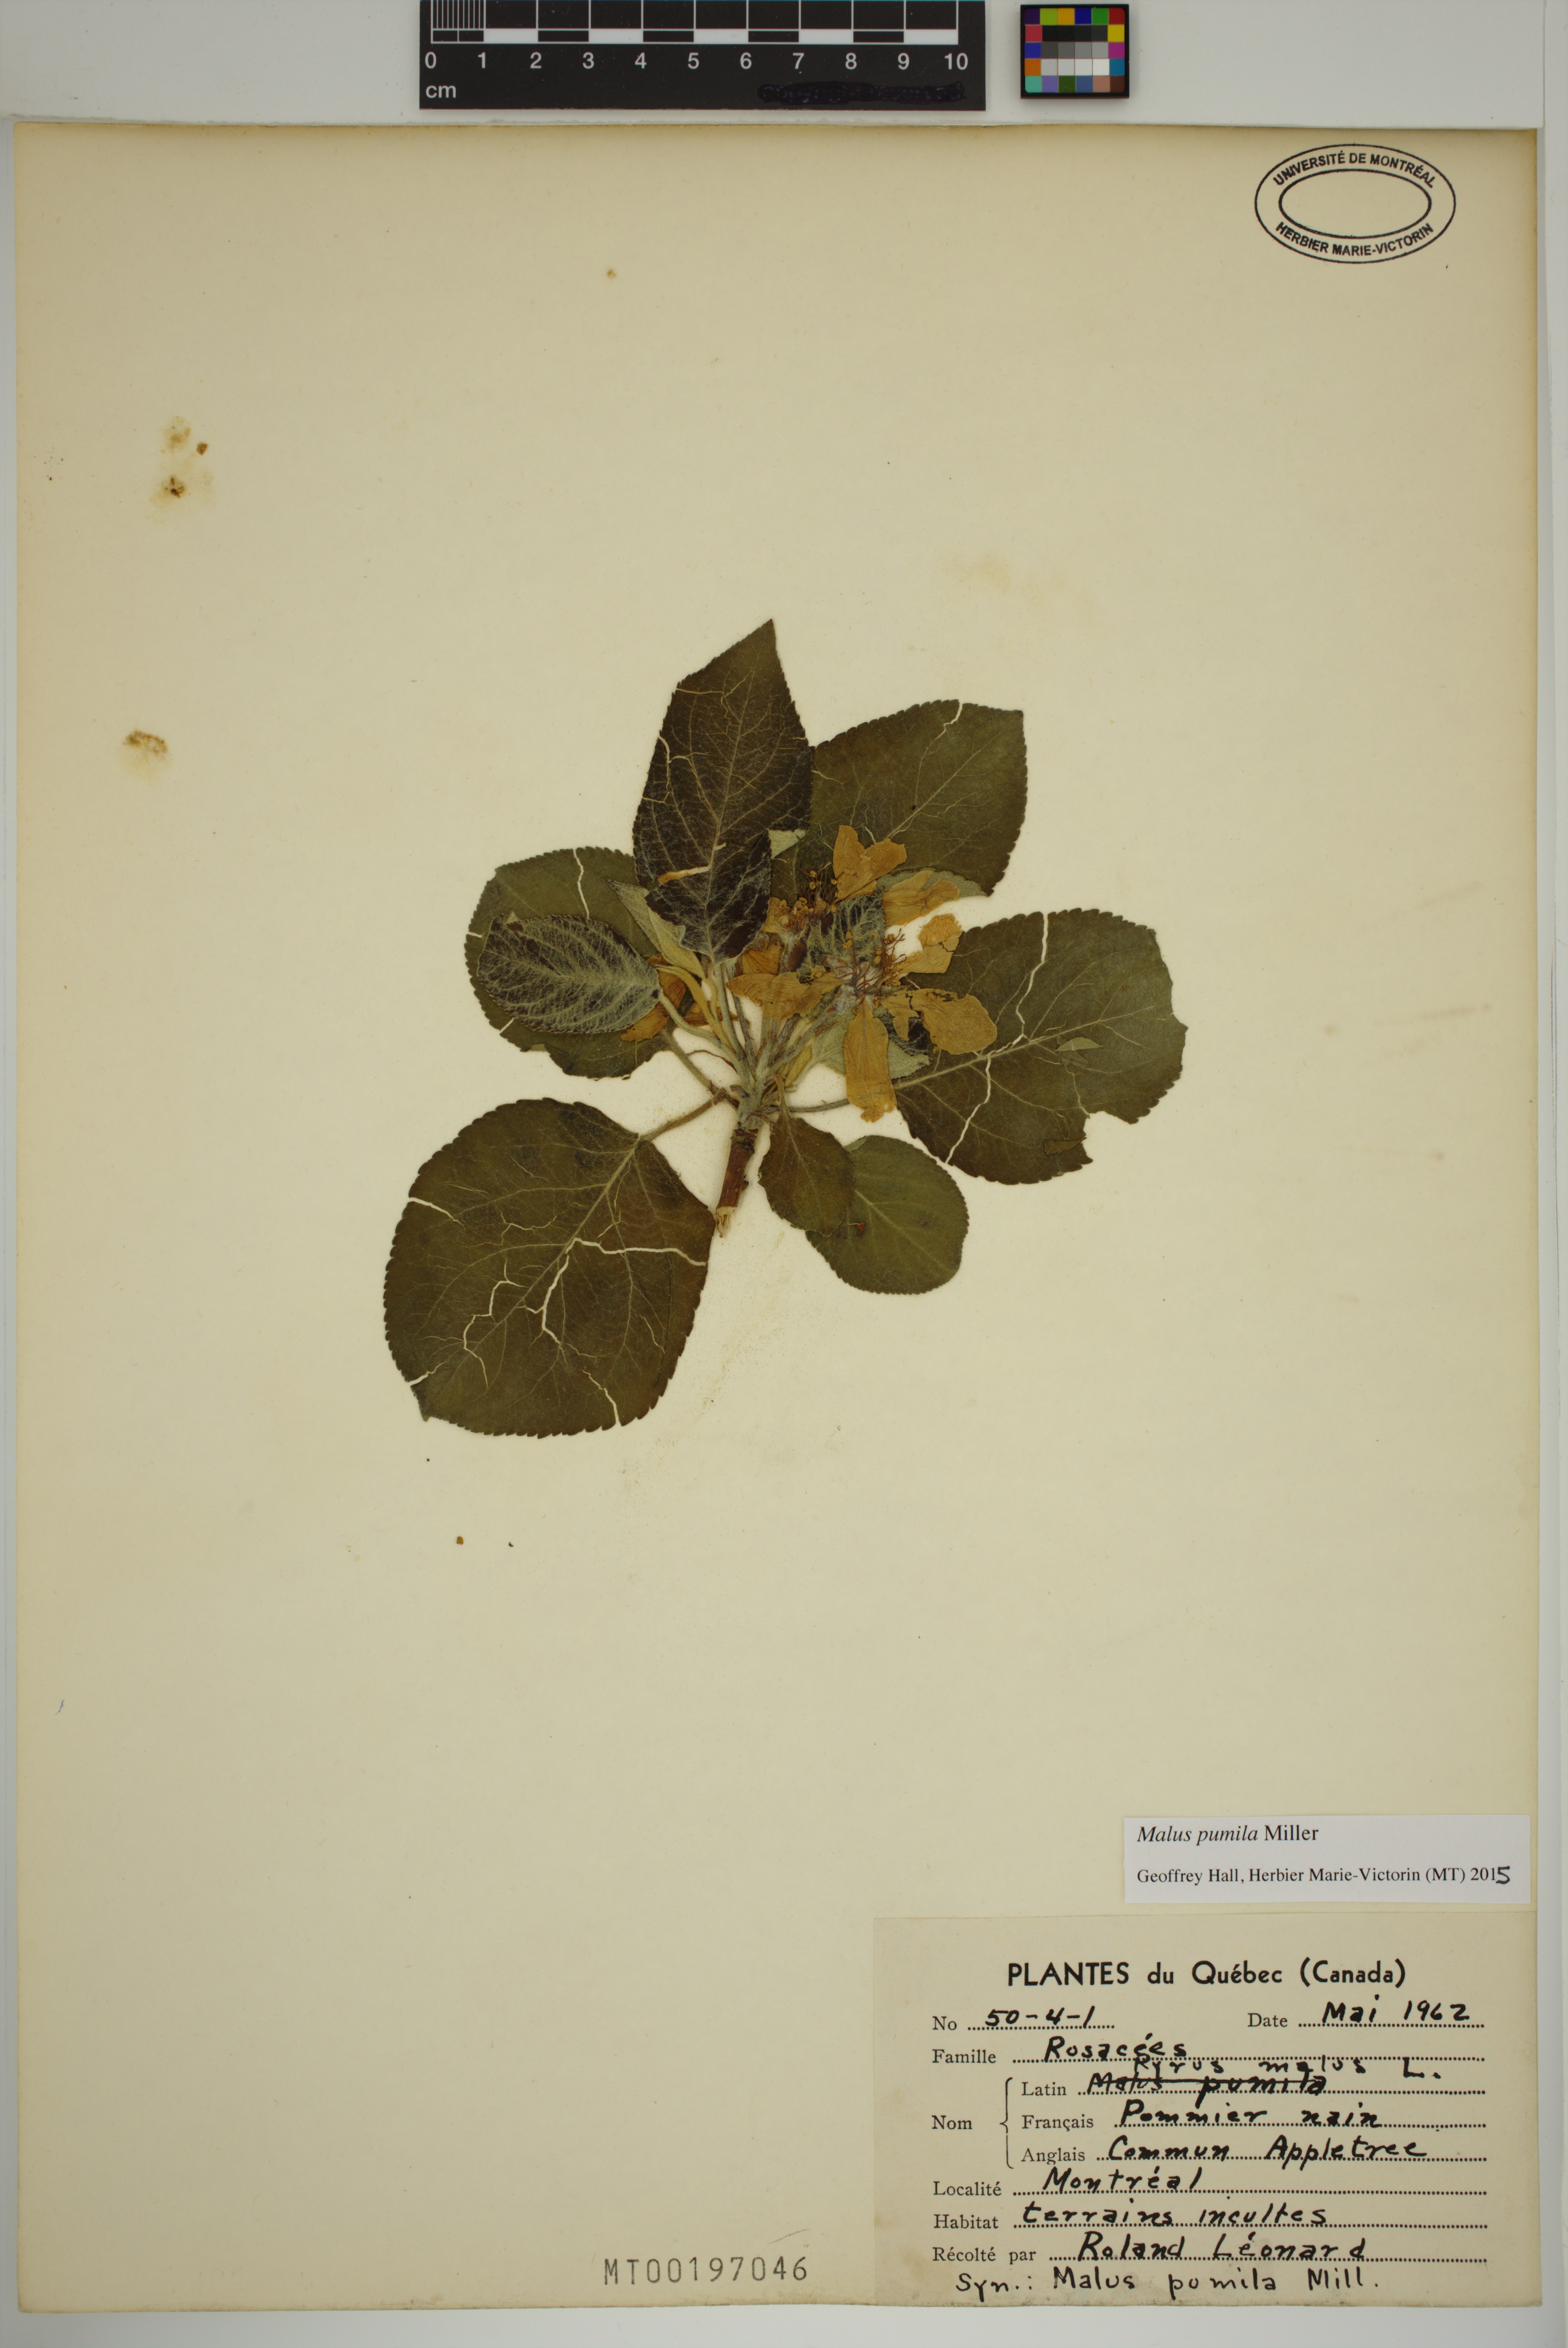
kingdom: Plantae
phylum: Tracheophyta
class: Magnoliopsida
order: Rosales
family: Rosaceae
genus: Malus
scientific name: Malus domestica
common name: Apple
